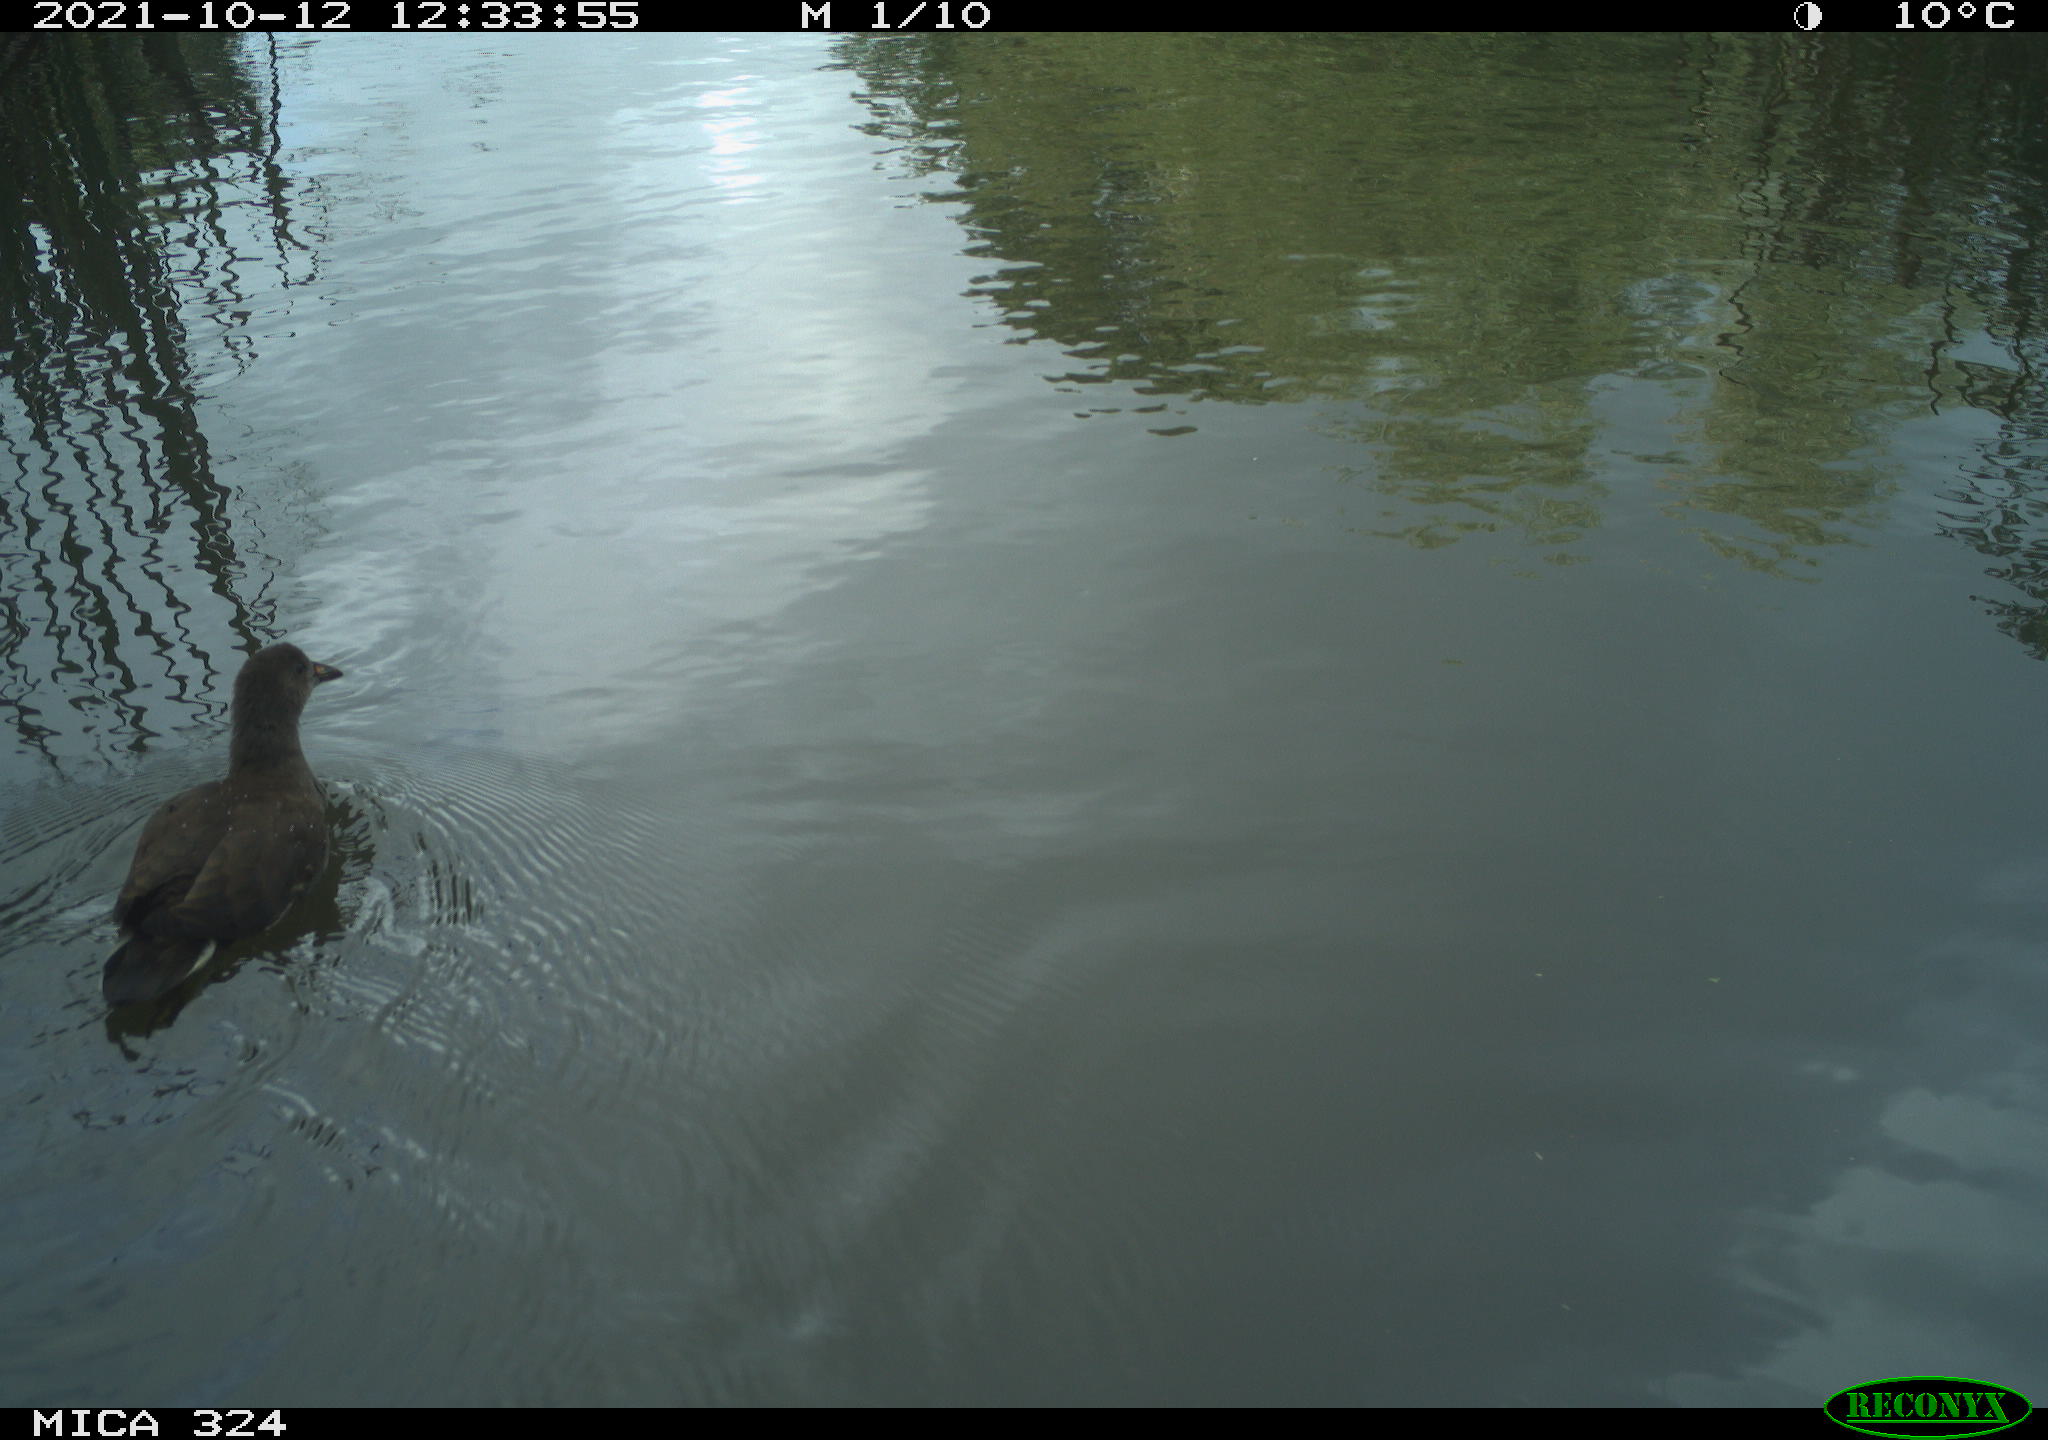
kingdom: Animalia
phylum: Chordata
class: Aves
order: Gruiformes
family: Rallidae
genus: Gallinula
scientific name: Gallinula chloropus
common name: Common moorhen
